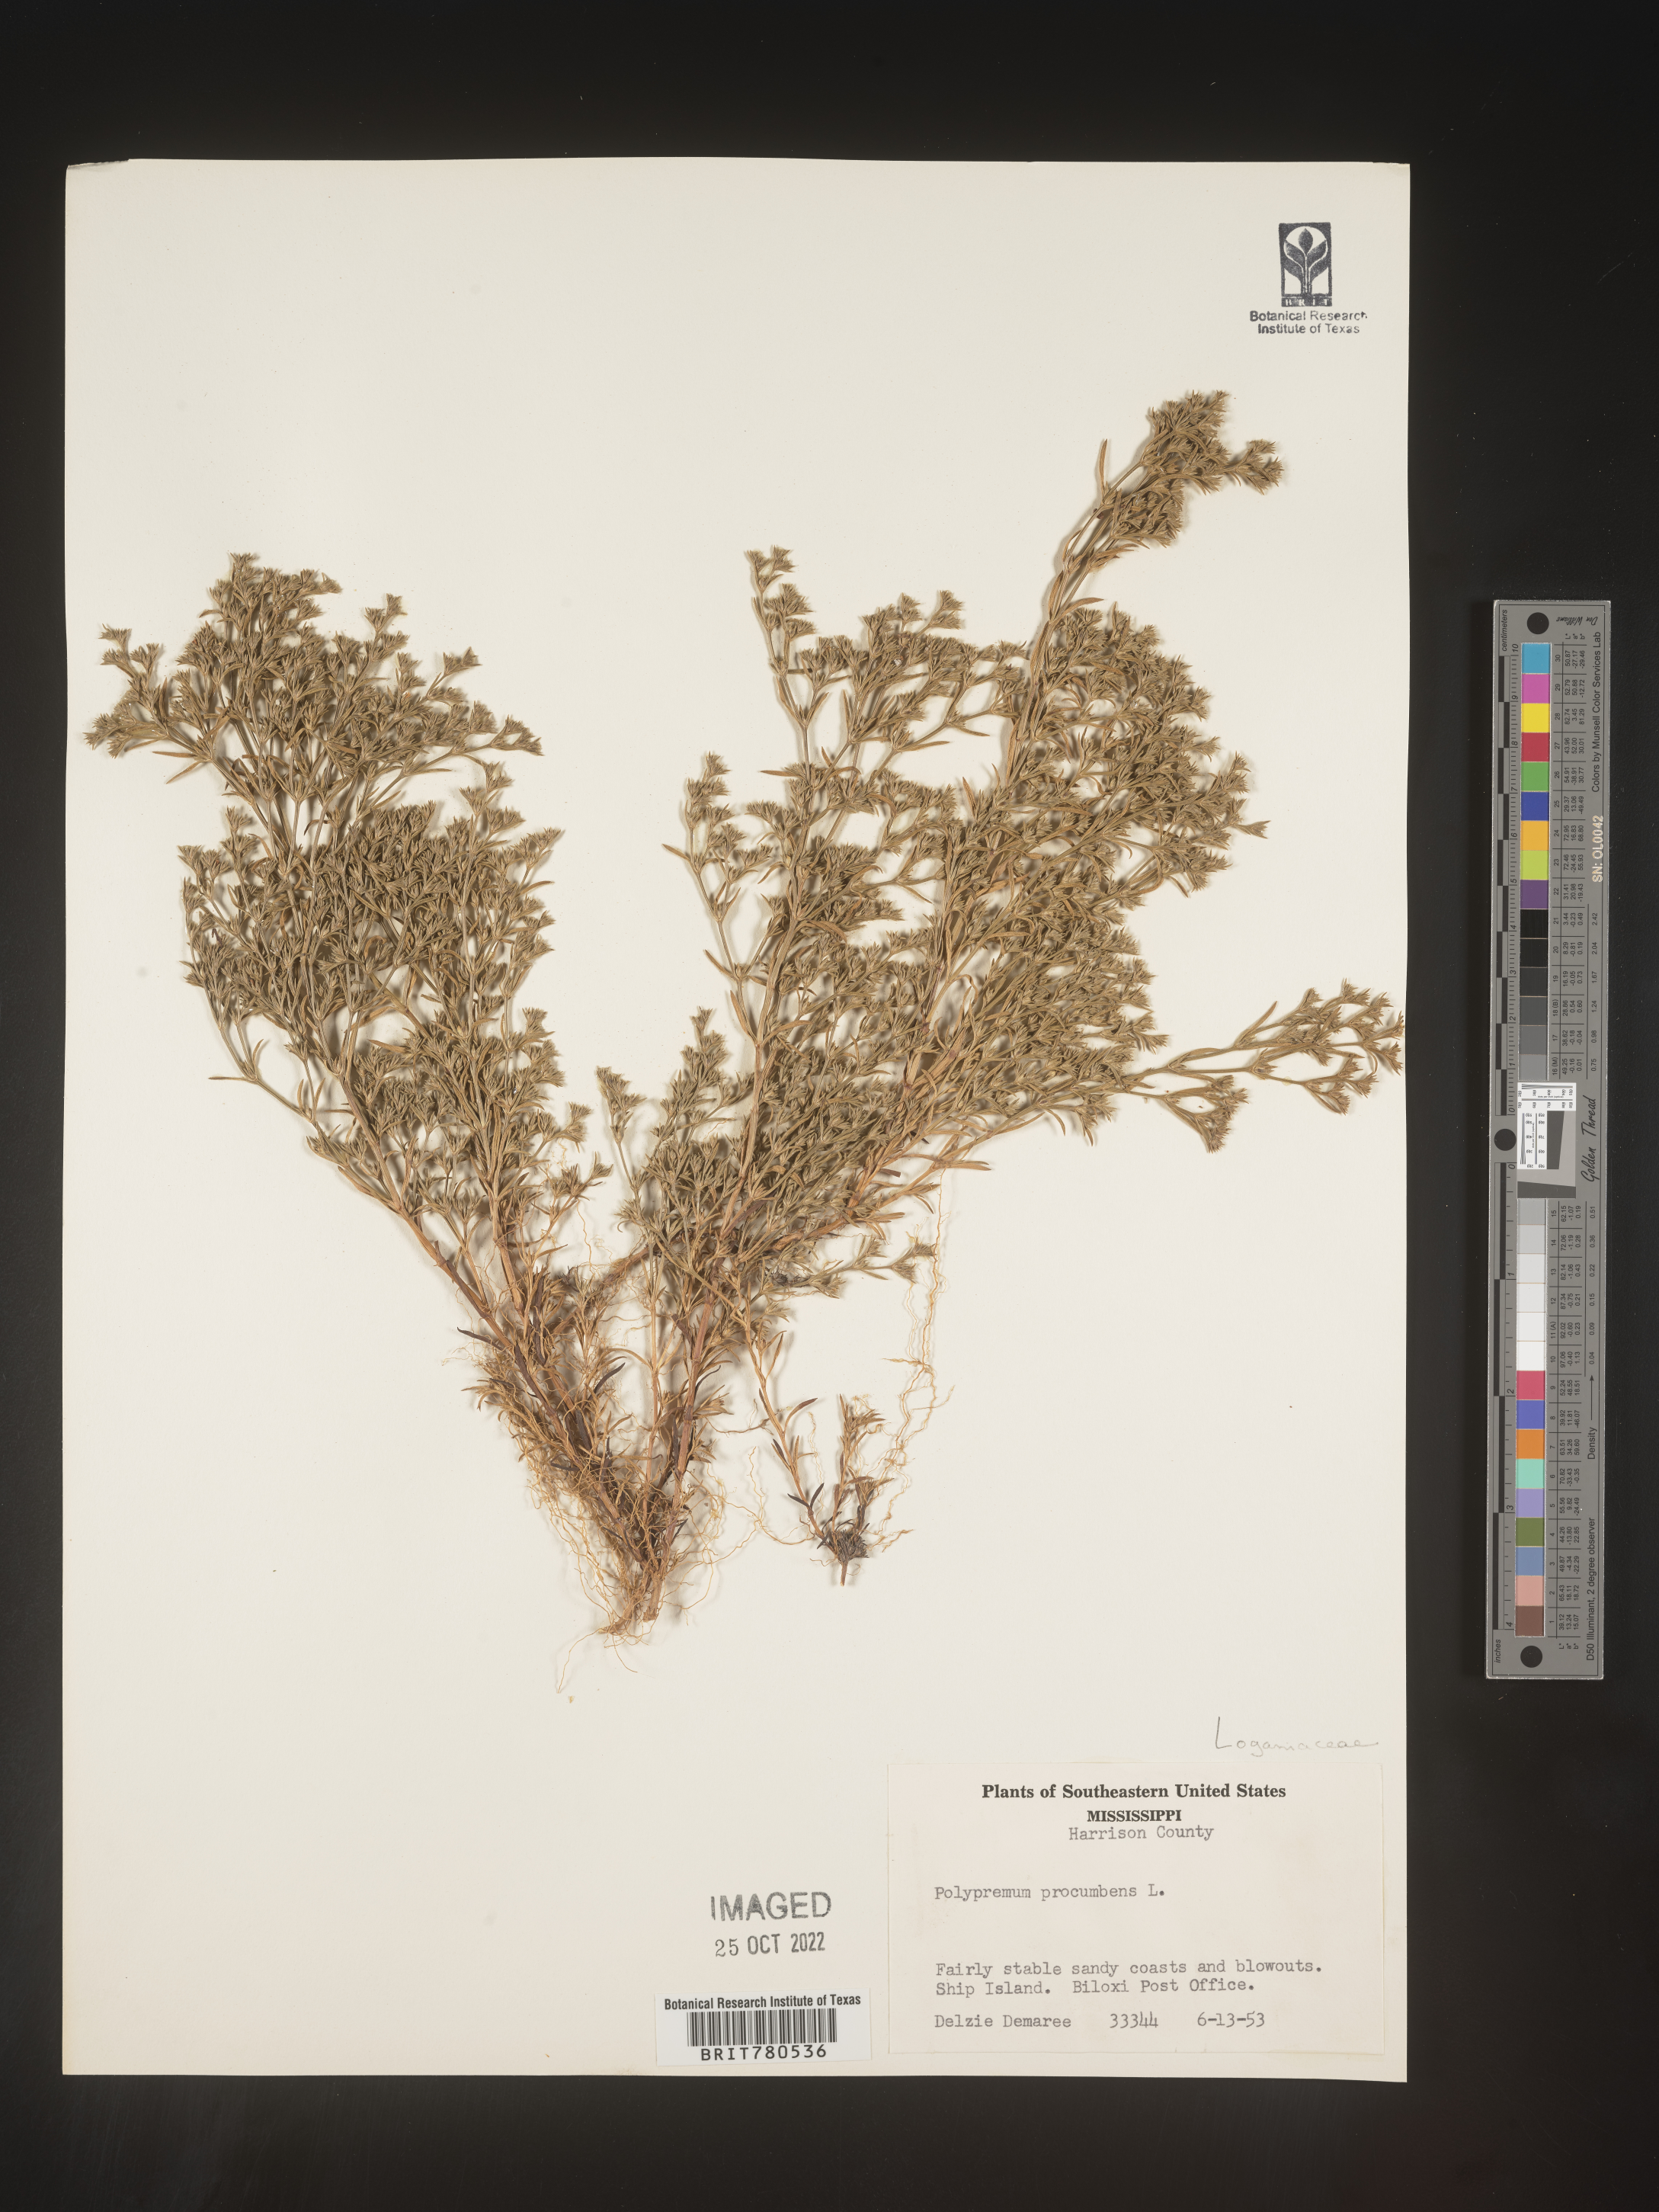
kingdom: Plantae
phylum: Tracheophyta
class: Magnoliopsida
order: Lamiales
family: Tetrachondraceae
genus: Polypremum
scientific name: Polypremum procumbens
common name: Juniper-leaf
